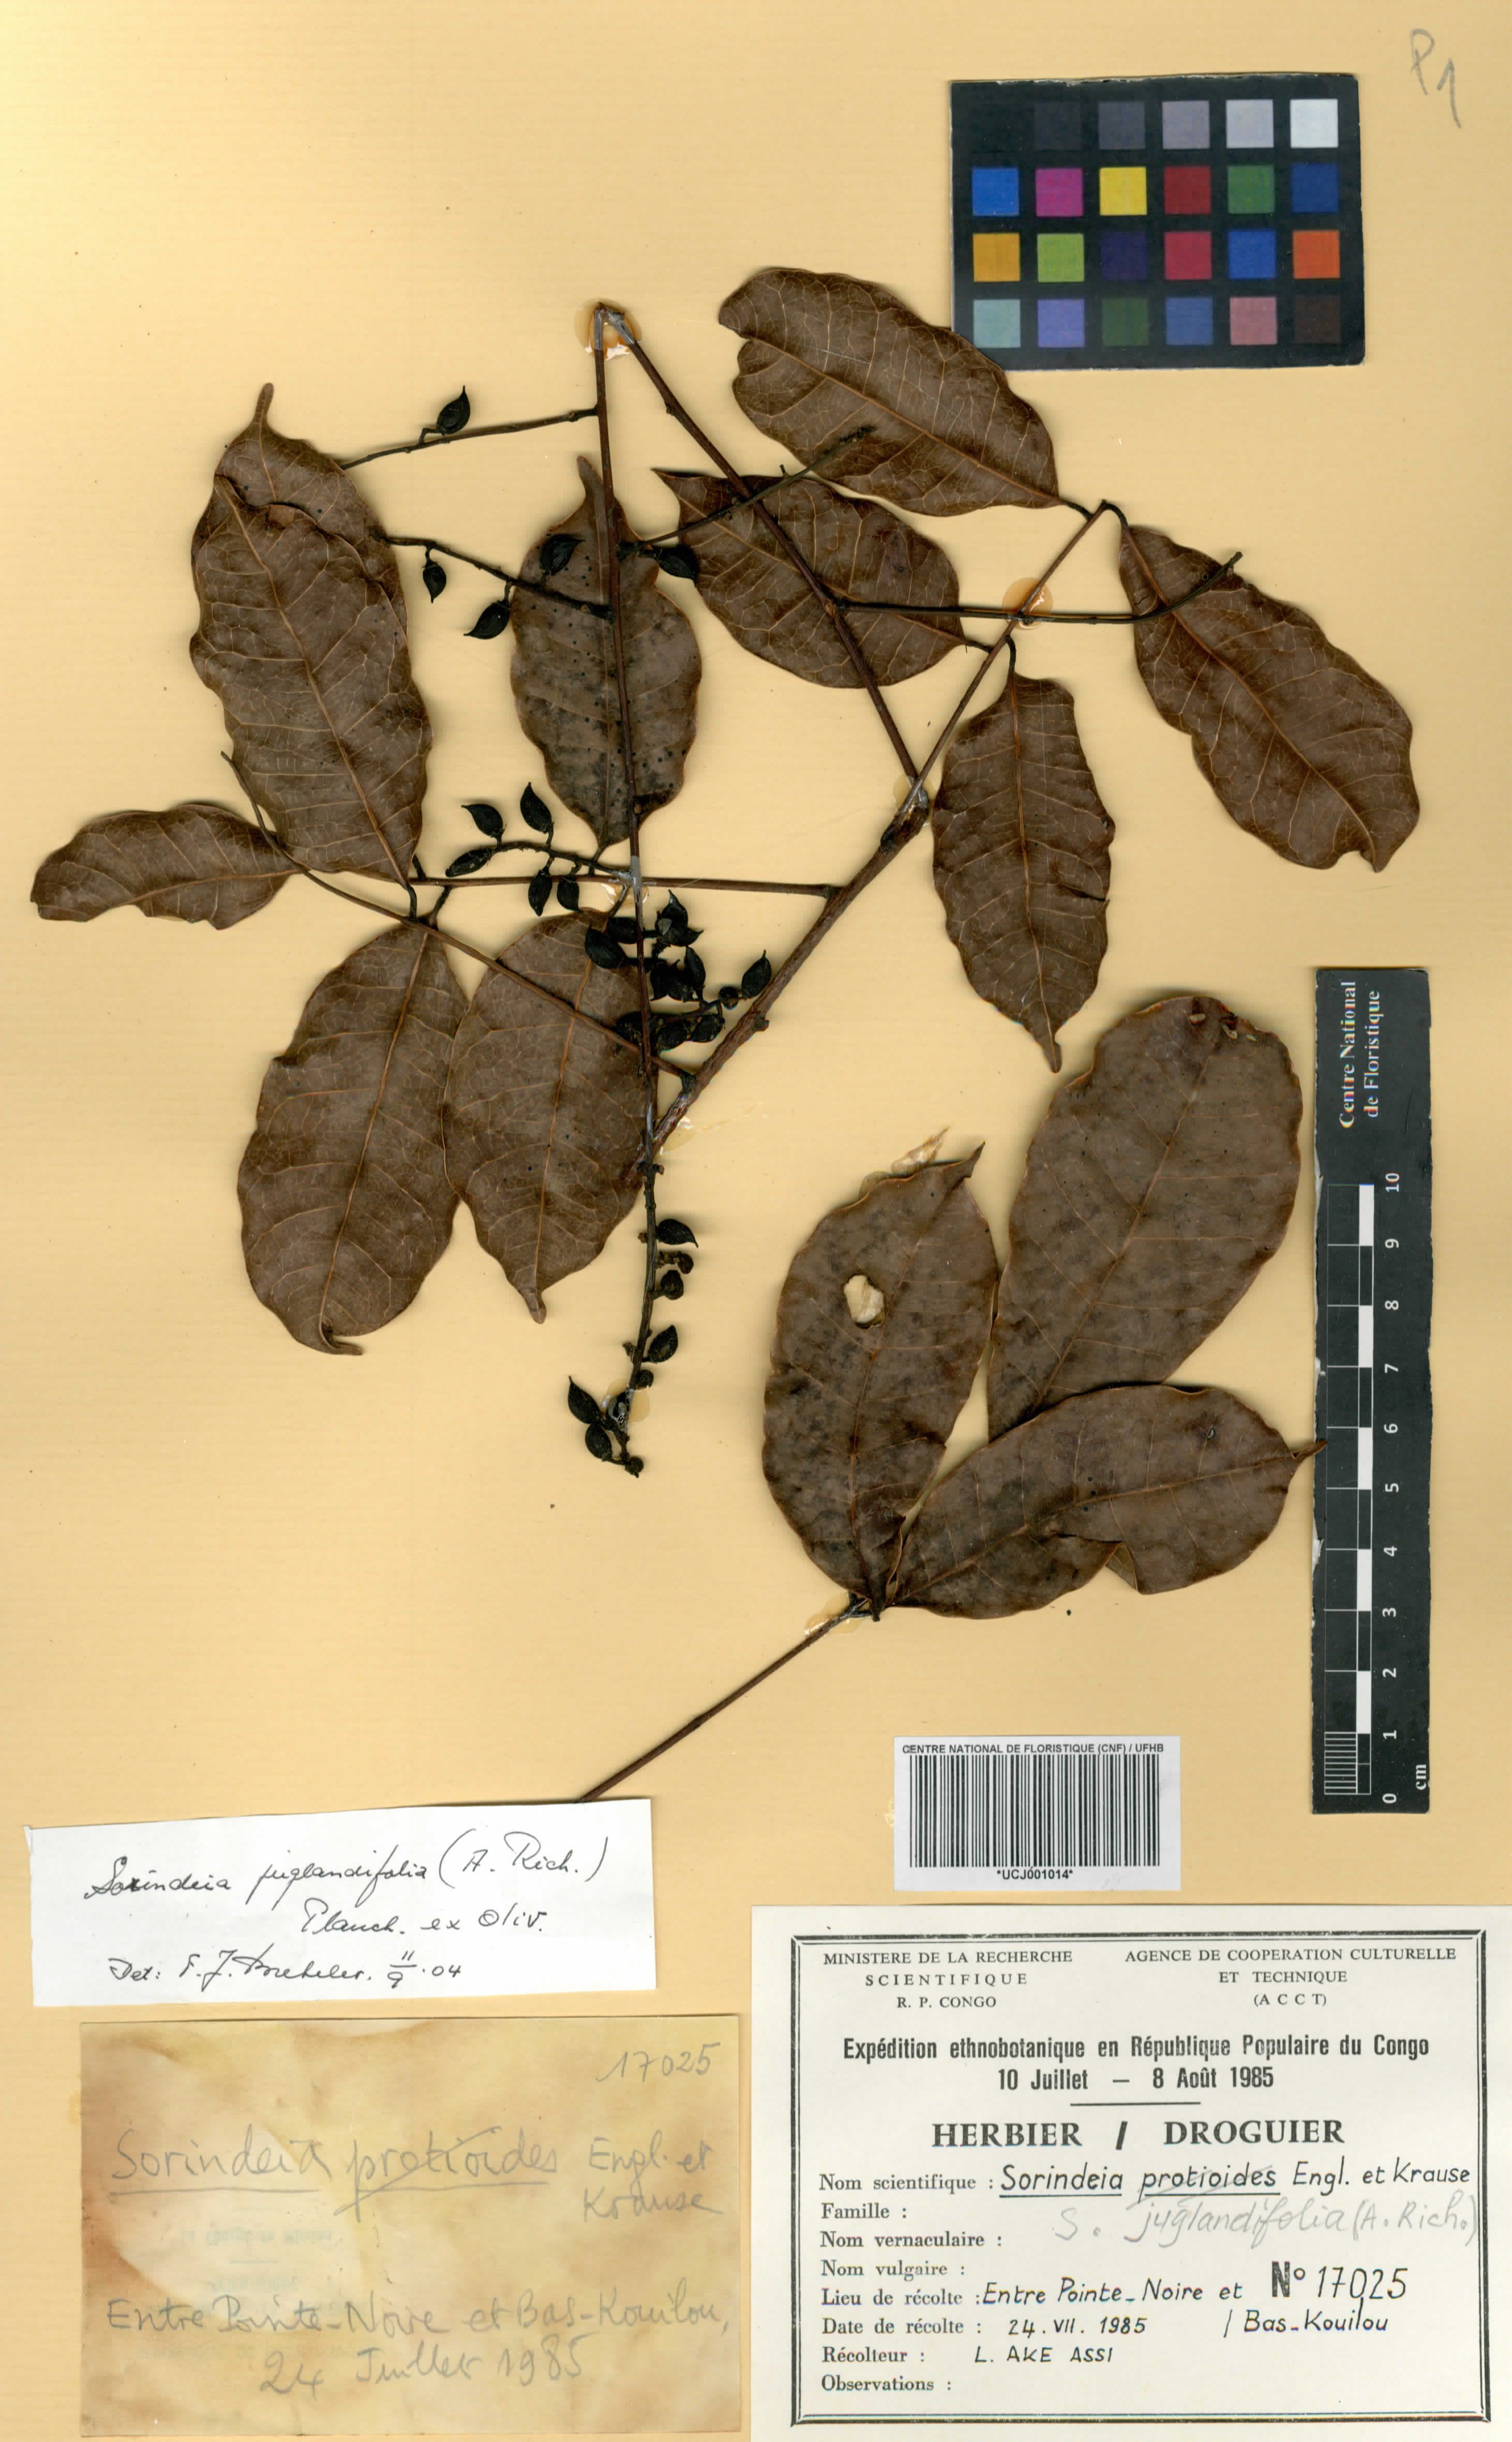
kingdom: Plantae
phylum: Tracheophyta
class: Magnoliopsida
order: Sapindales
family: Anacardiaceae
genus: Sorindeia
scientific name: Sorindeia juglandifolia
